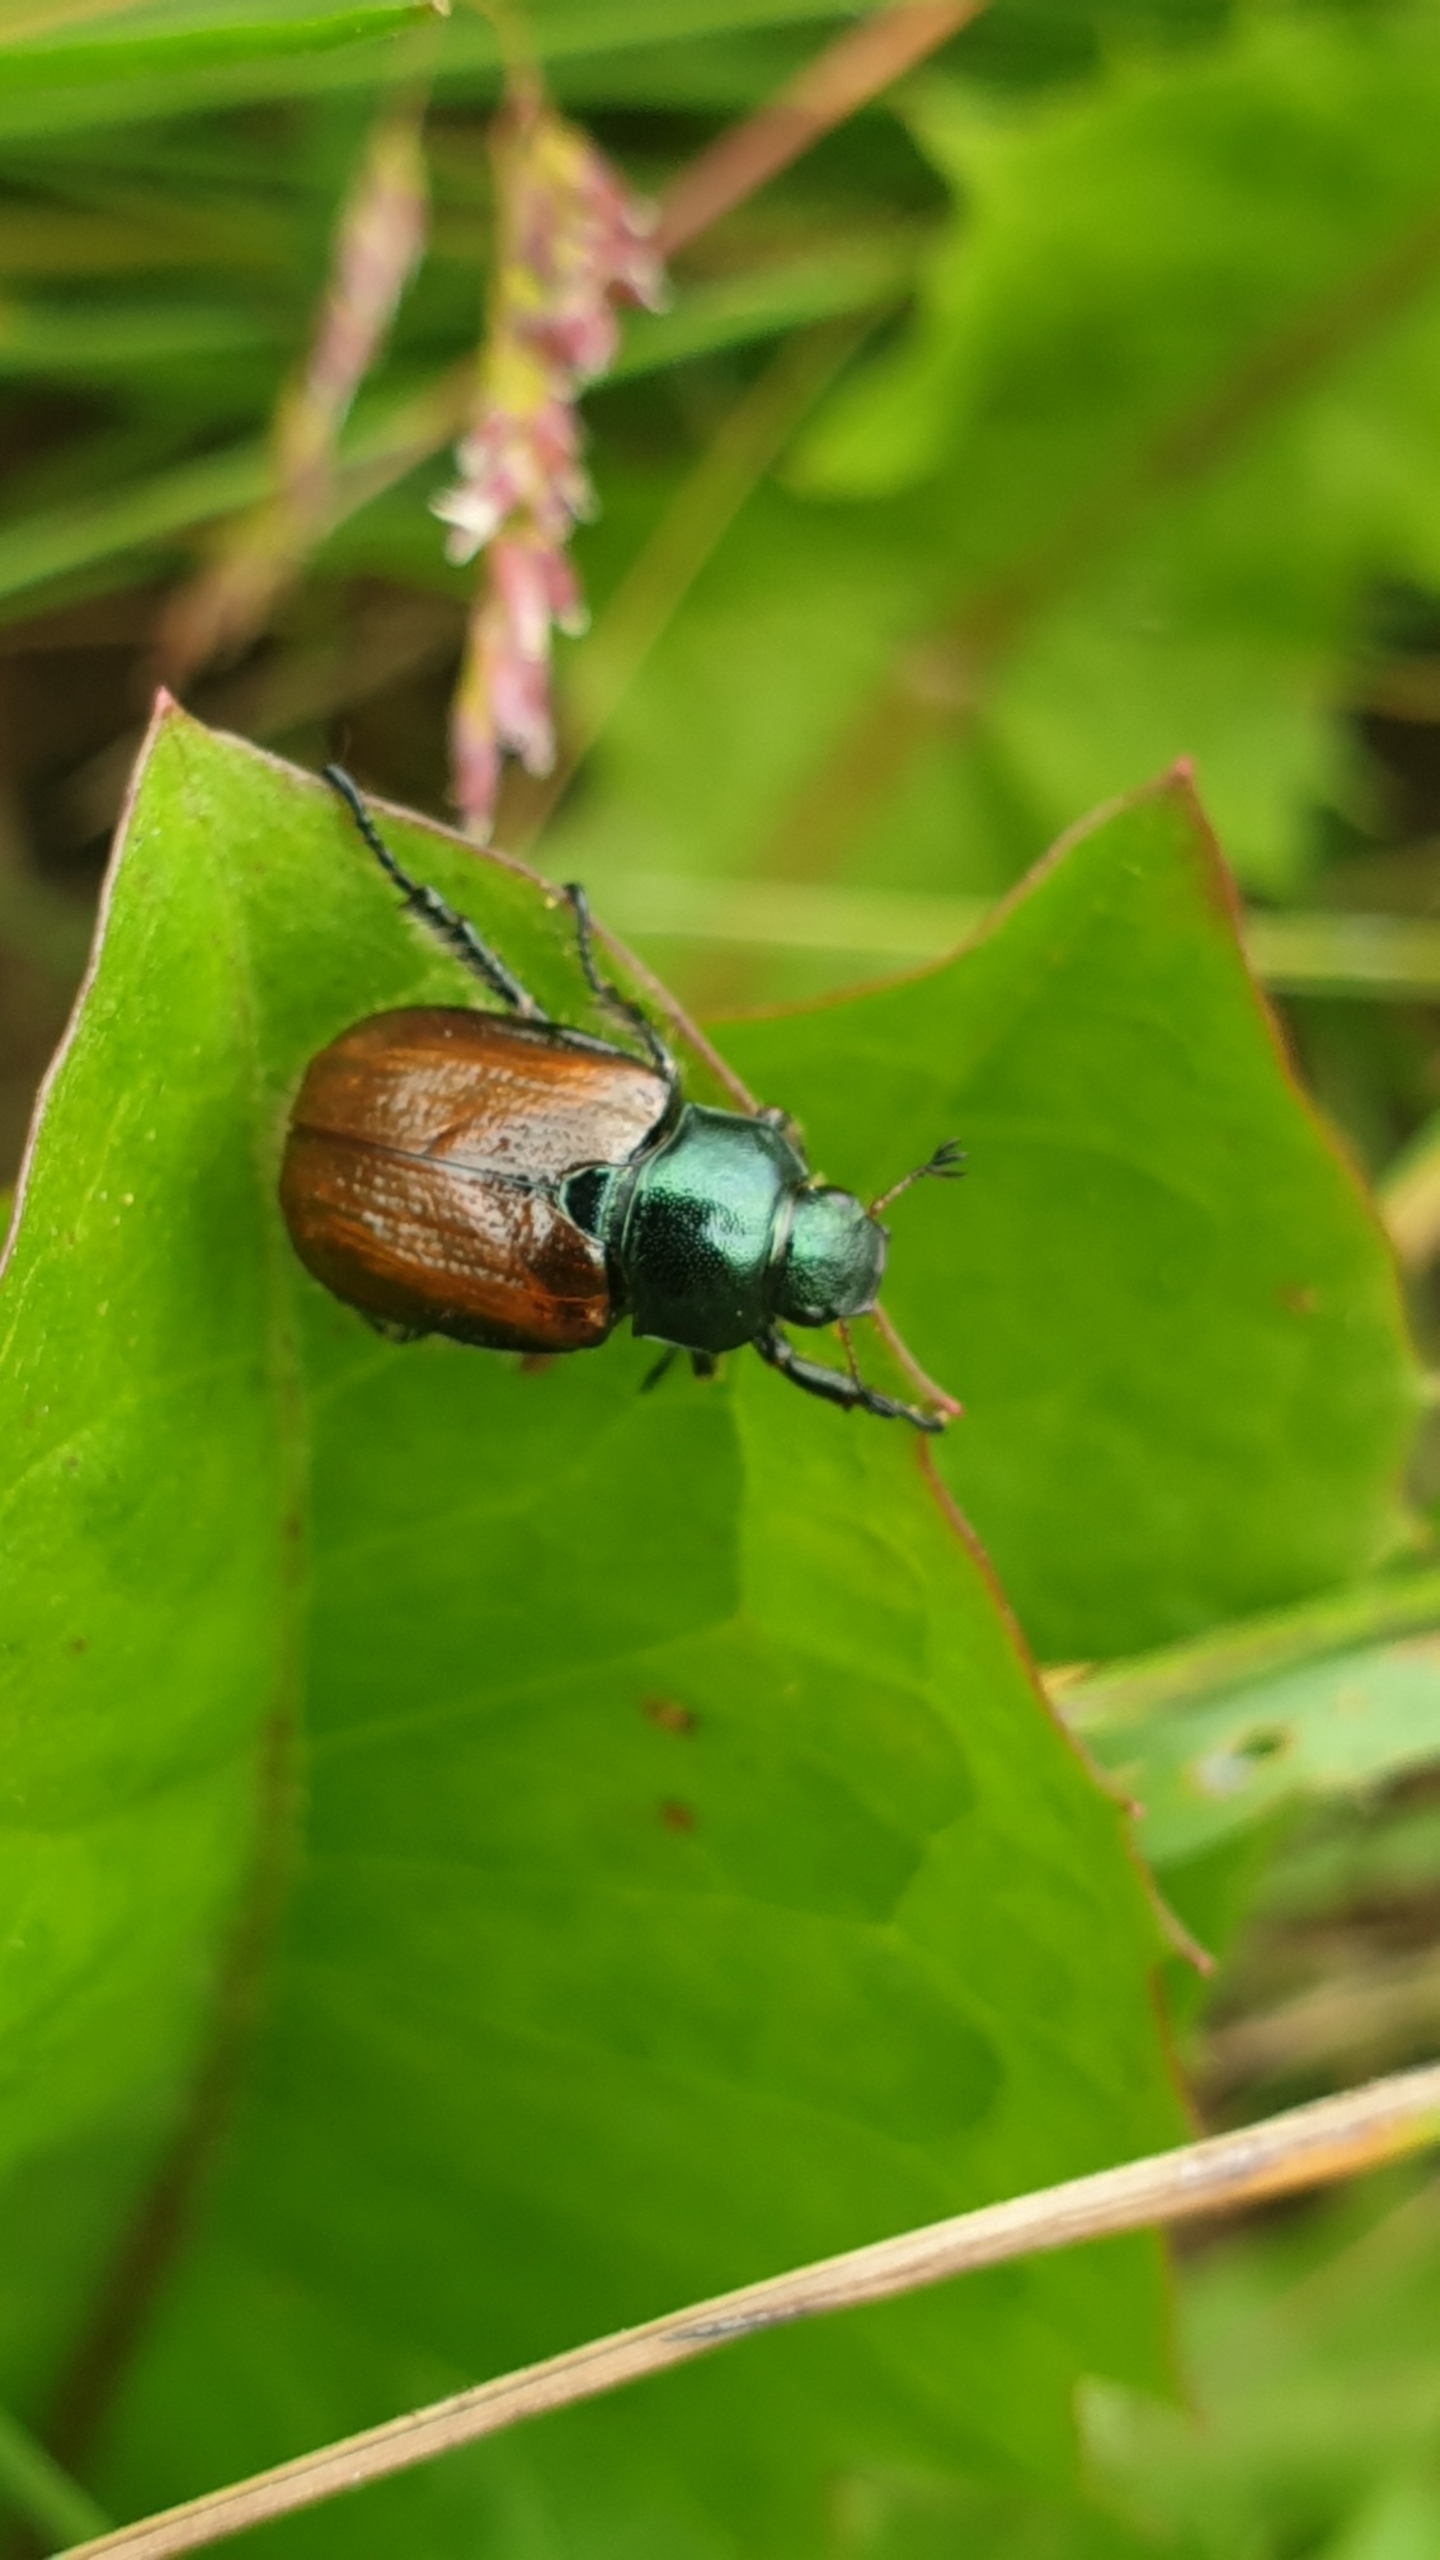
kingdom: Animalia
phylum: Arthropoda
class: Insecta
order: Coleoptera
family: Scarabaeidae
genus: Phyllopertha
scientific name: Phyllopertha horticola
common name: Gåsebille
